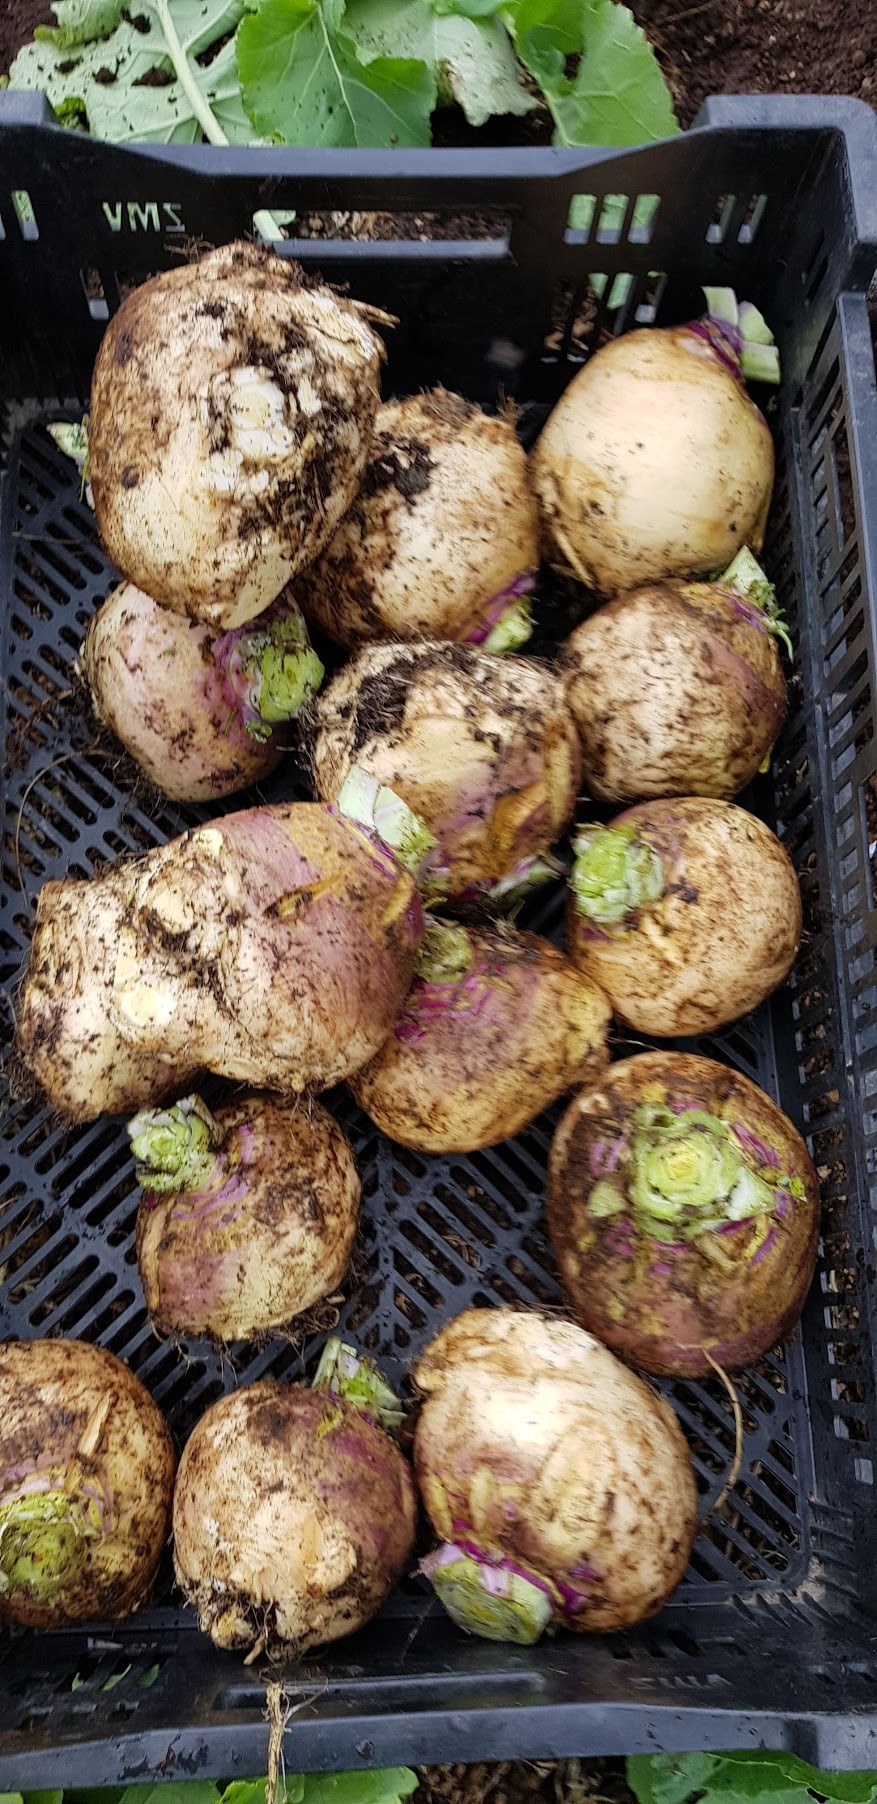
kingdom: Plantae
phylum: Tracheophyta
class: Magnoliopsida
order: Brassicales
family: Brassicaceae
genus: Brassica
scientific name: Brassica napus
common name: Rape
